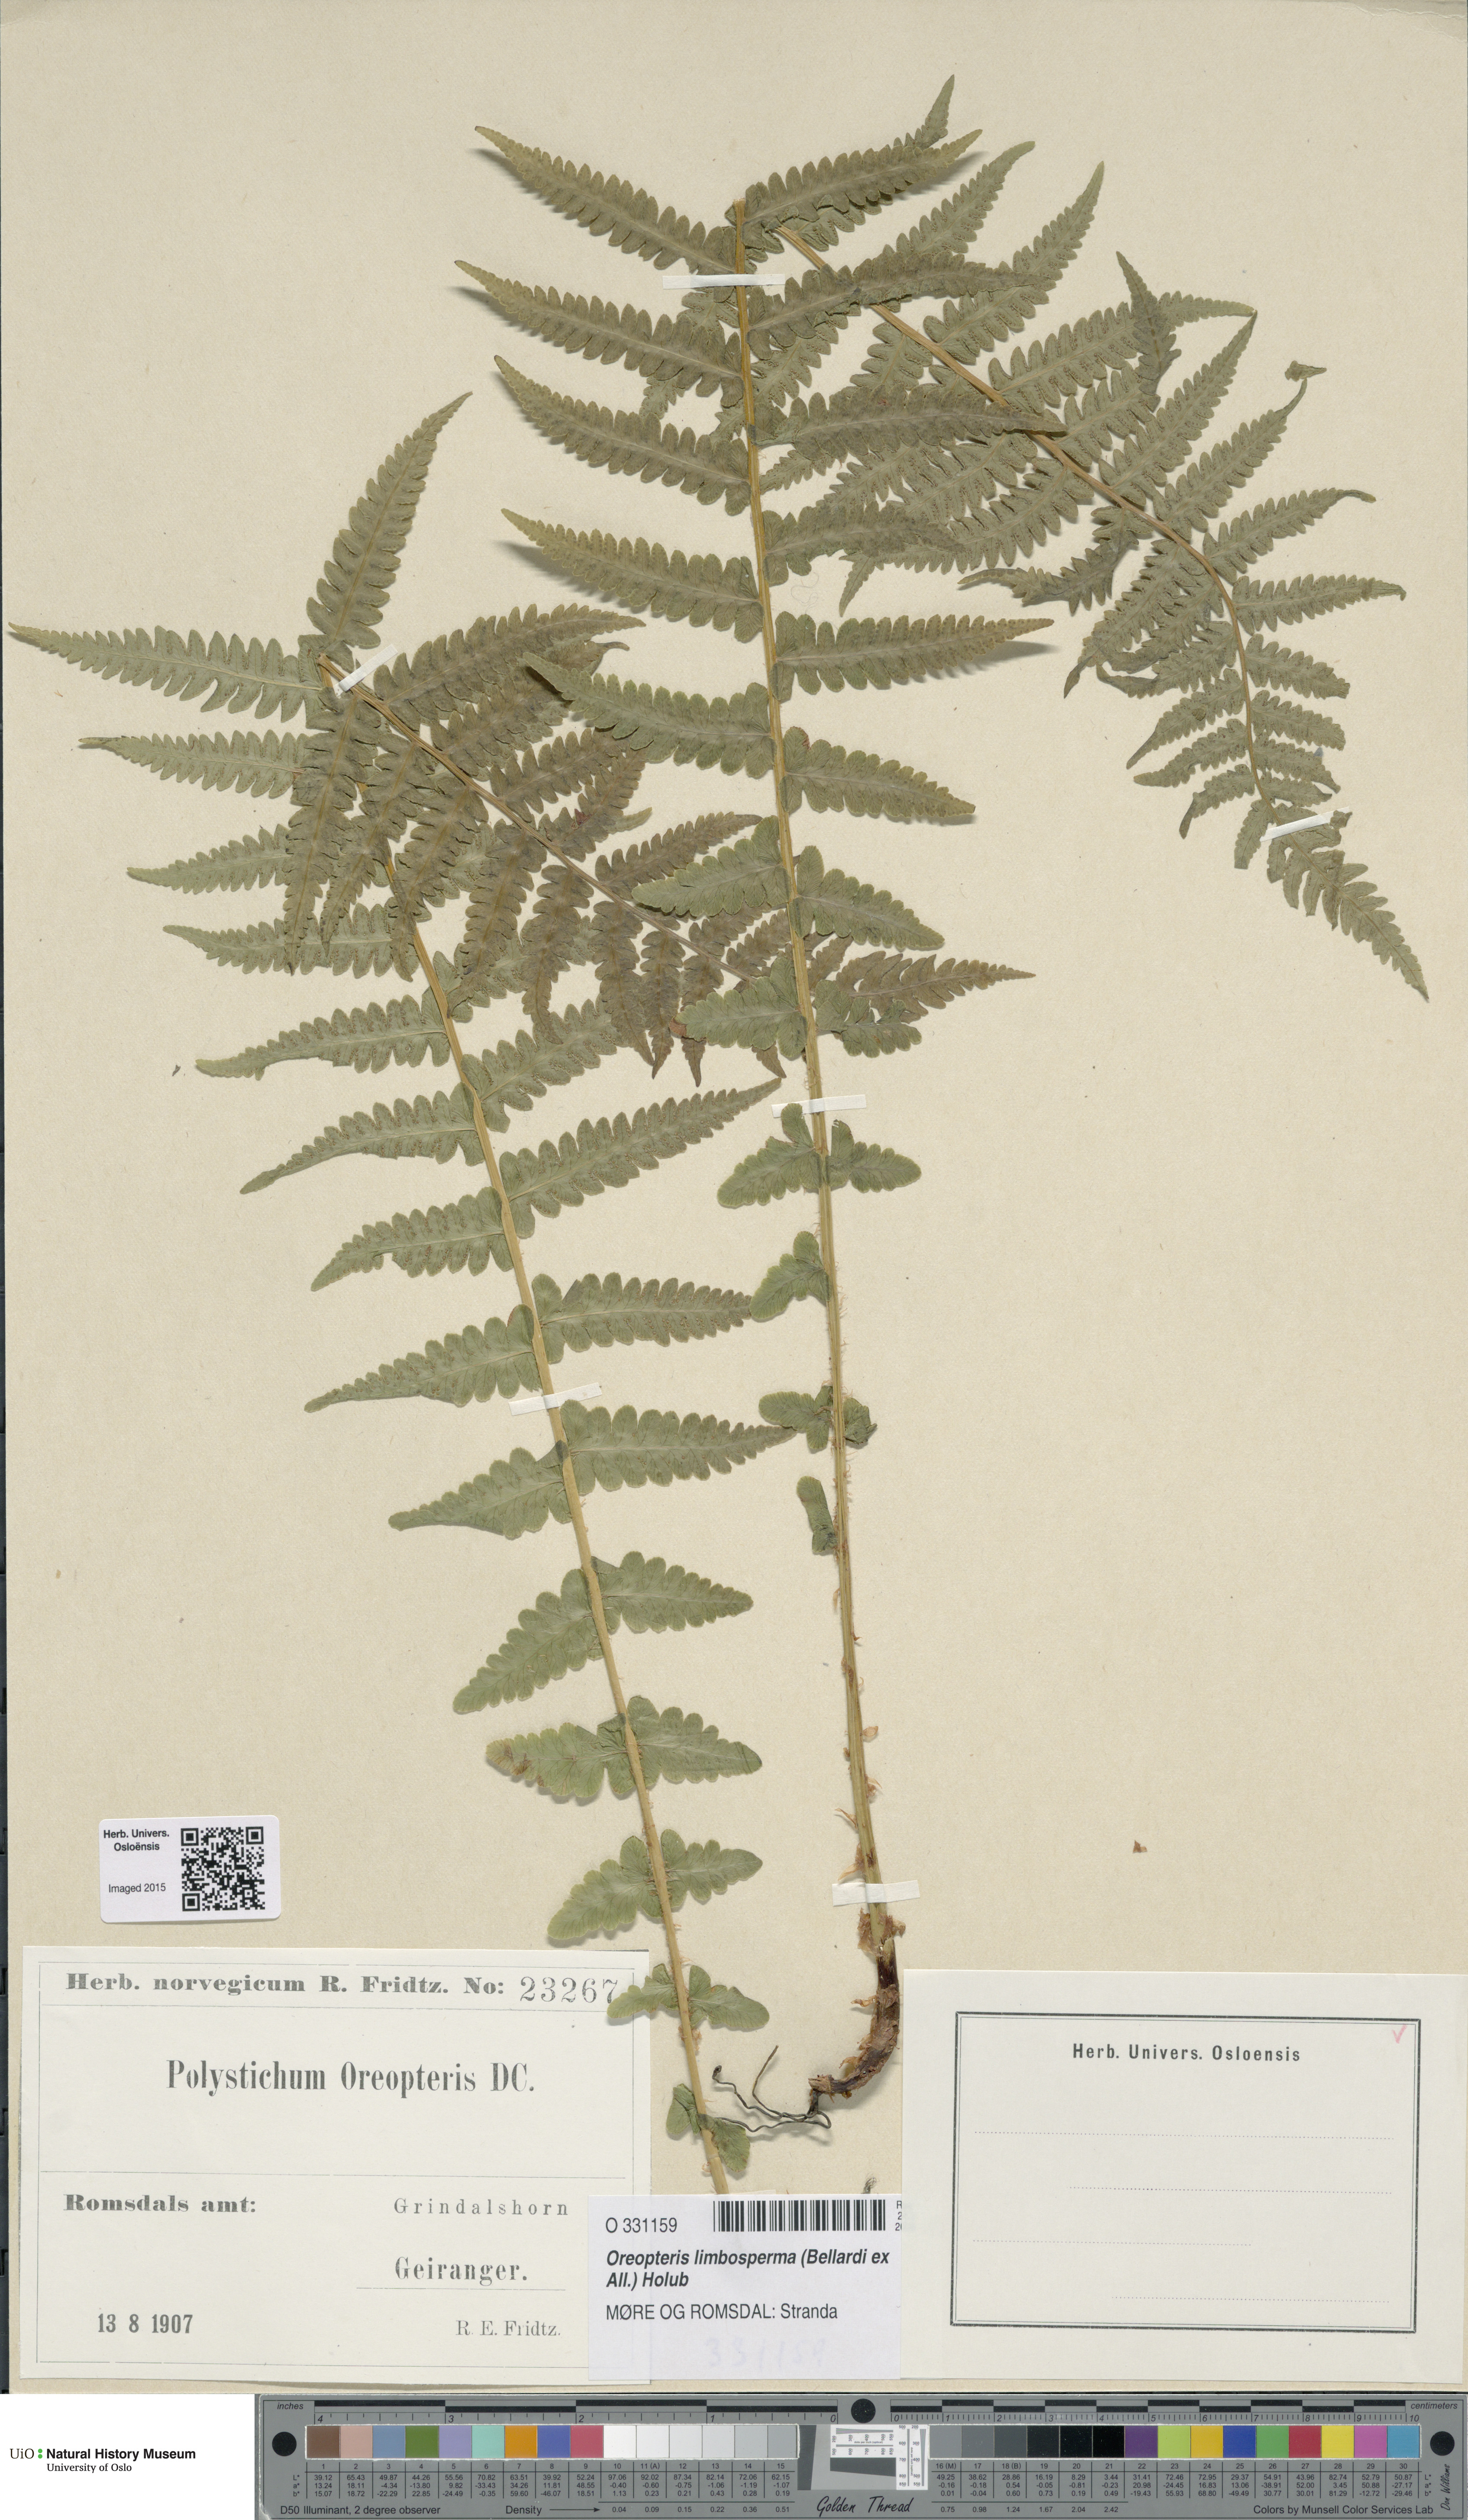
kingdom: Plantae
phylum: Tracheophyta
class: Polypodiopsida
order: Polypodiales
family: Thelypteridaceae
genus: Oreopteris
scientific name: Oreopteris limbosperma
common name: Lemon-scented fern
